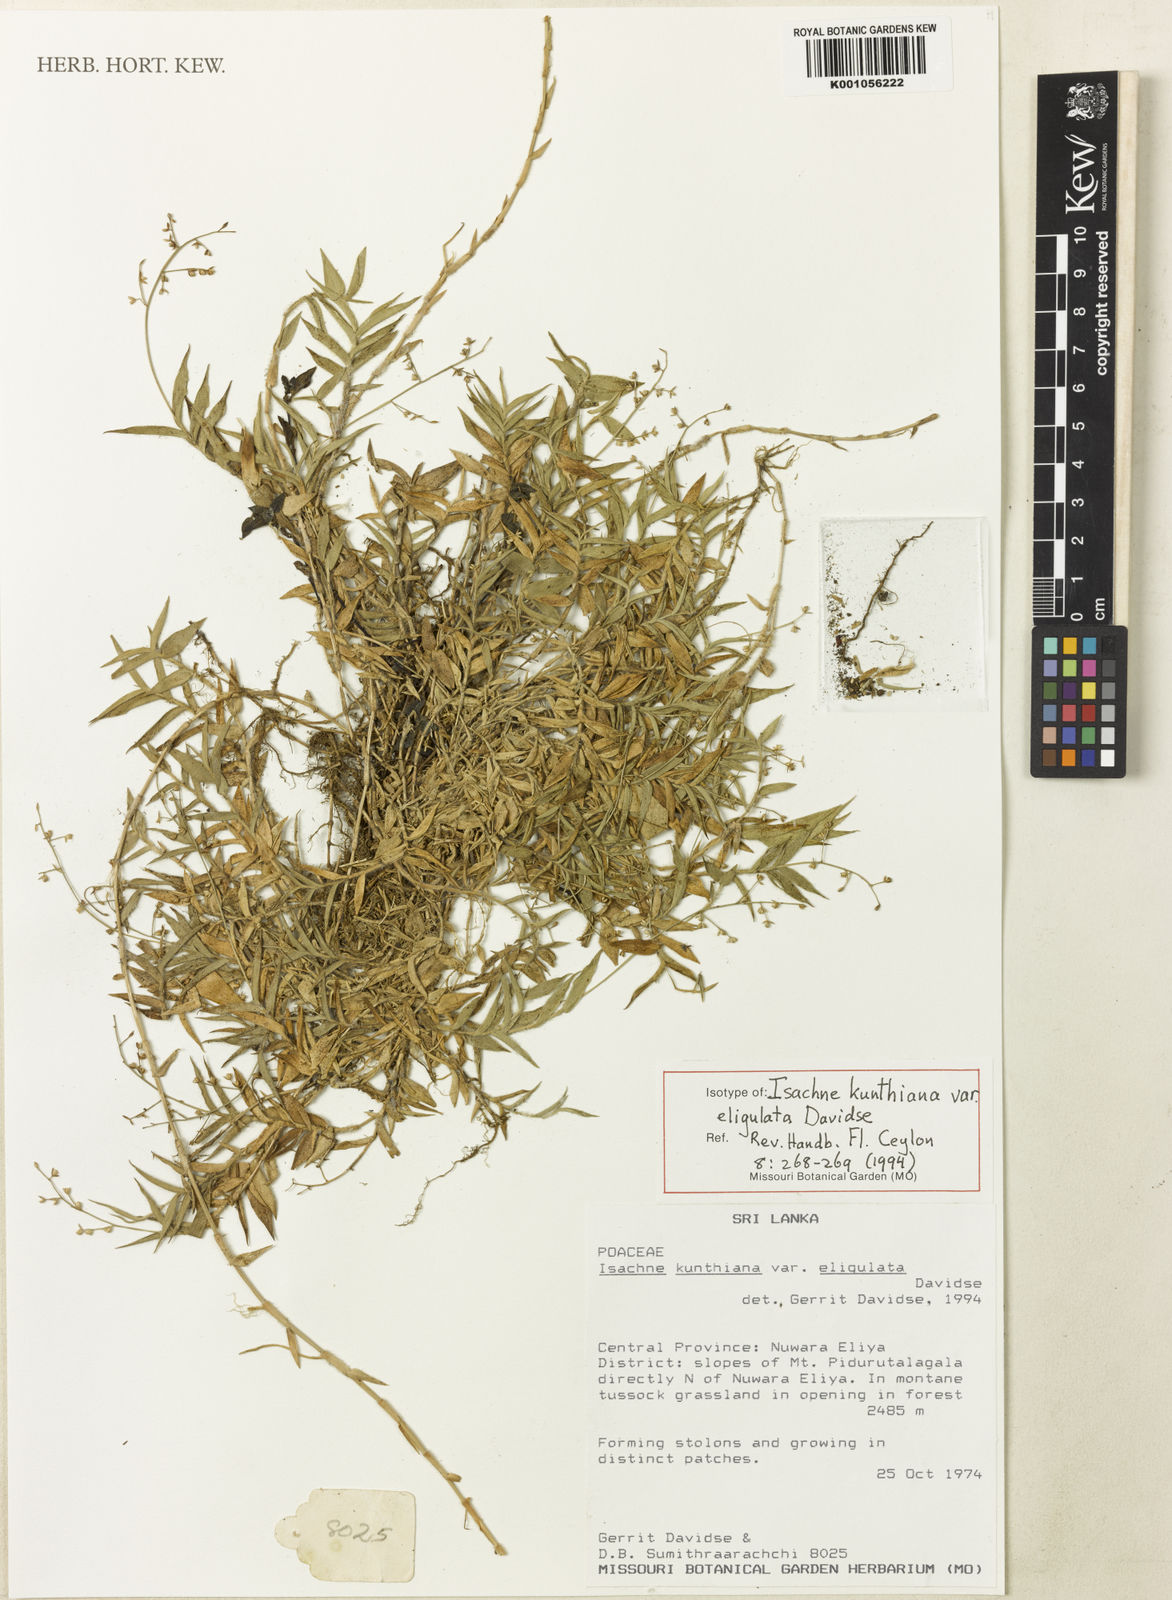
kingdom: Plantae
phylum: Tracheophyta
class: Liliopsida
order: Poales
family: Poaceae
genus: Isachne
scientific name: Isachne kunthiana
